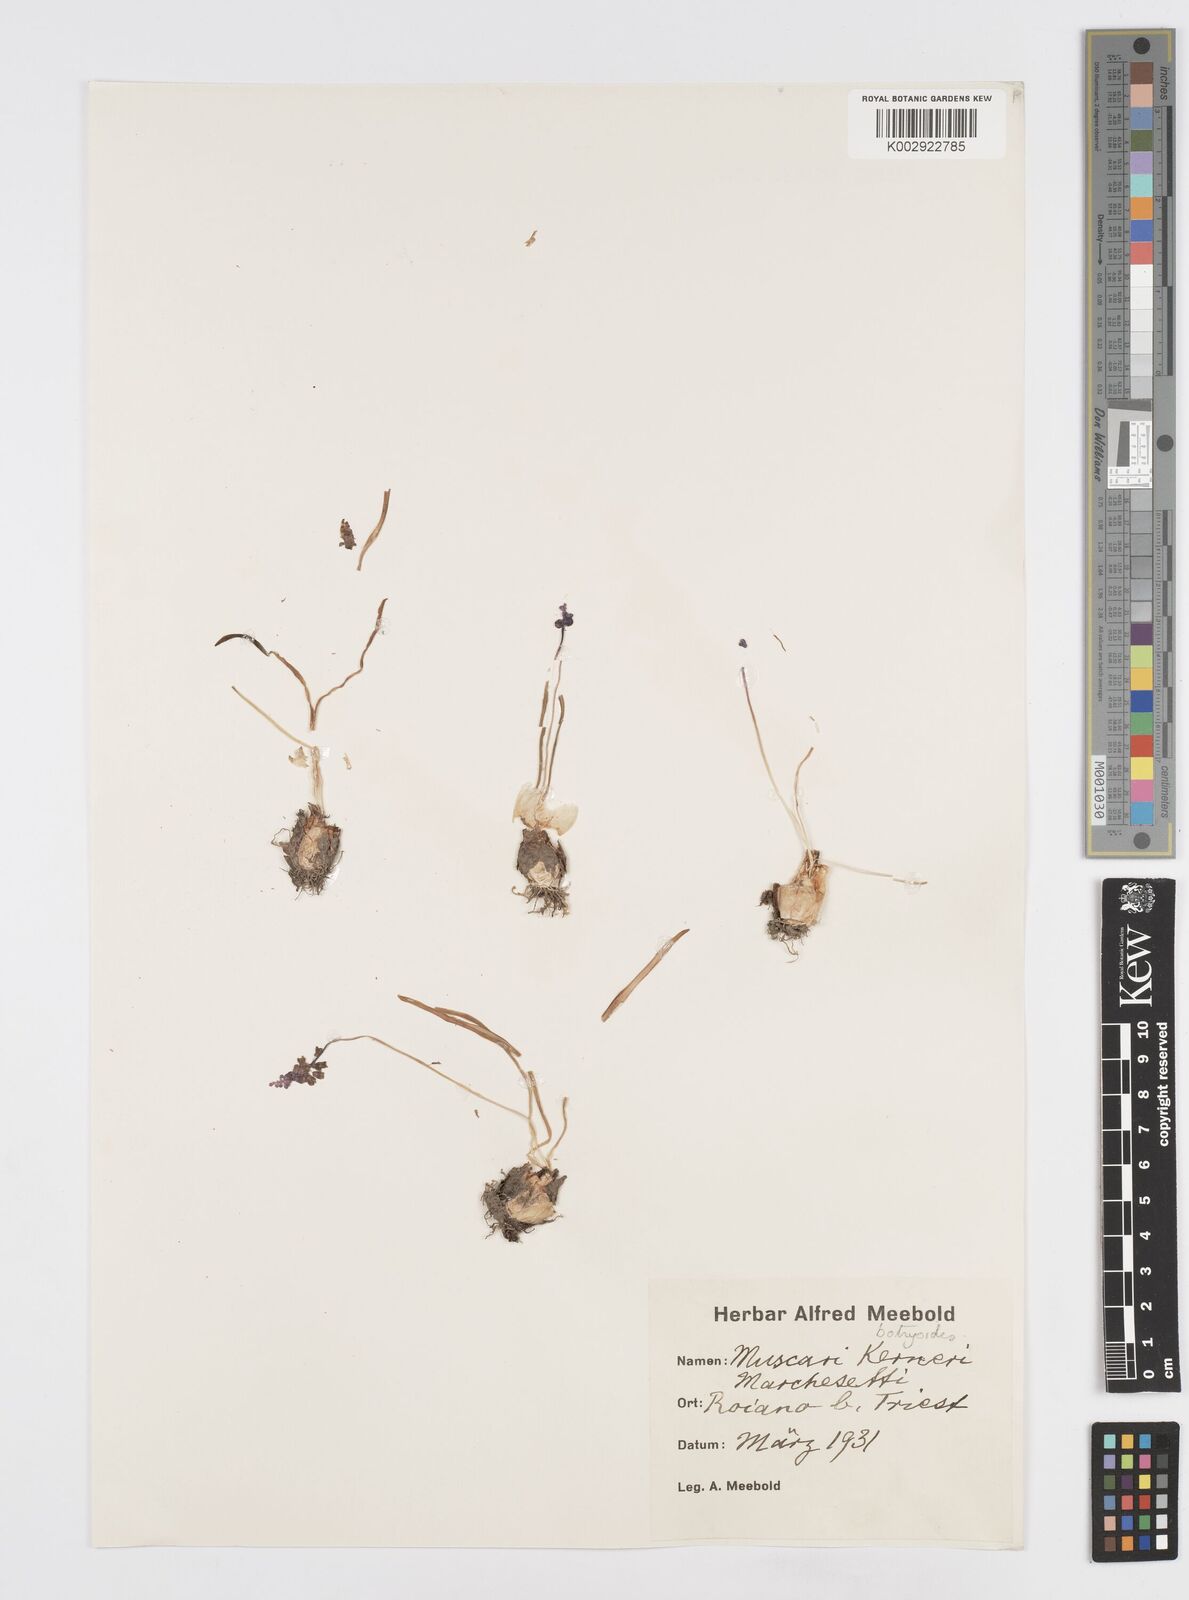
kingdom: Plantae
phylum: Tracheophyta
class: Liliopsida
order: Asparagales
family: Asparagaceae
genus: Muscari
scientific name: Muscari
